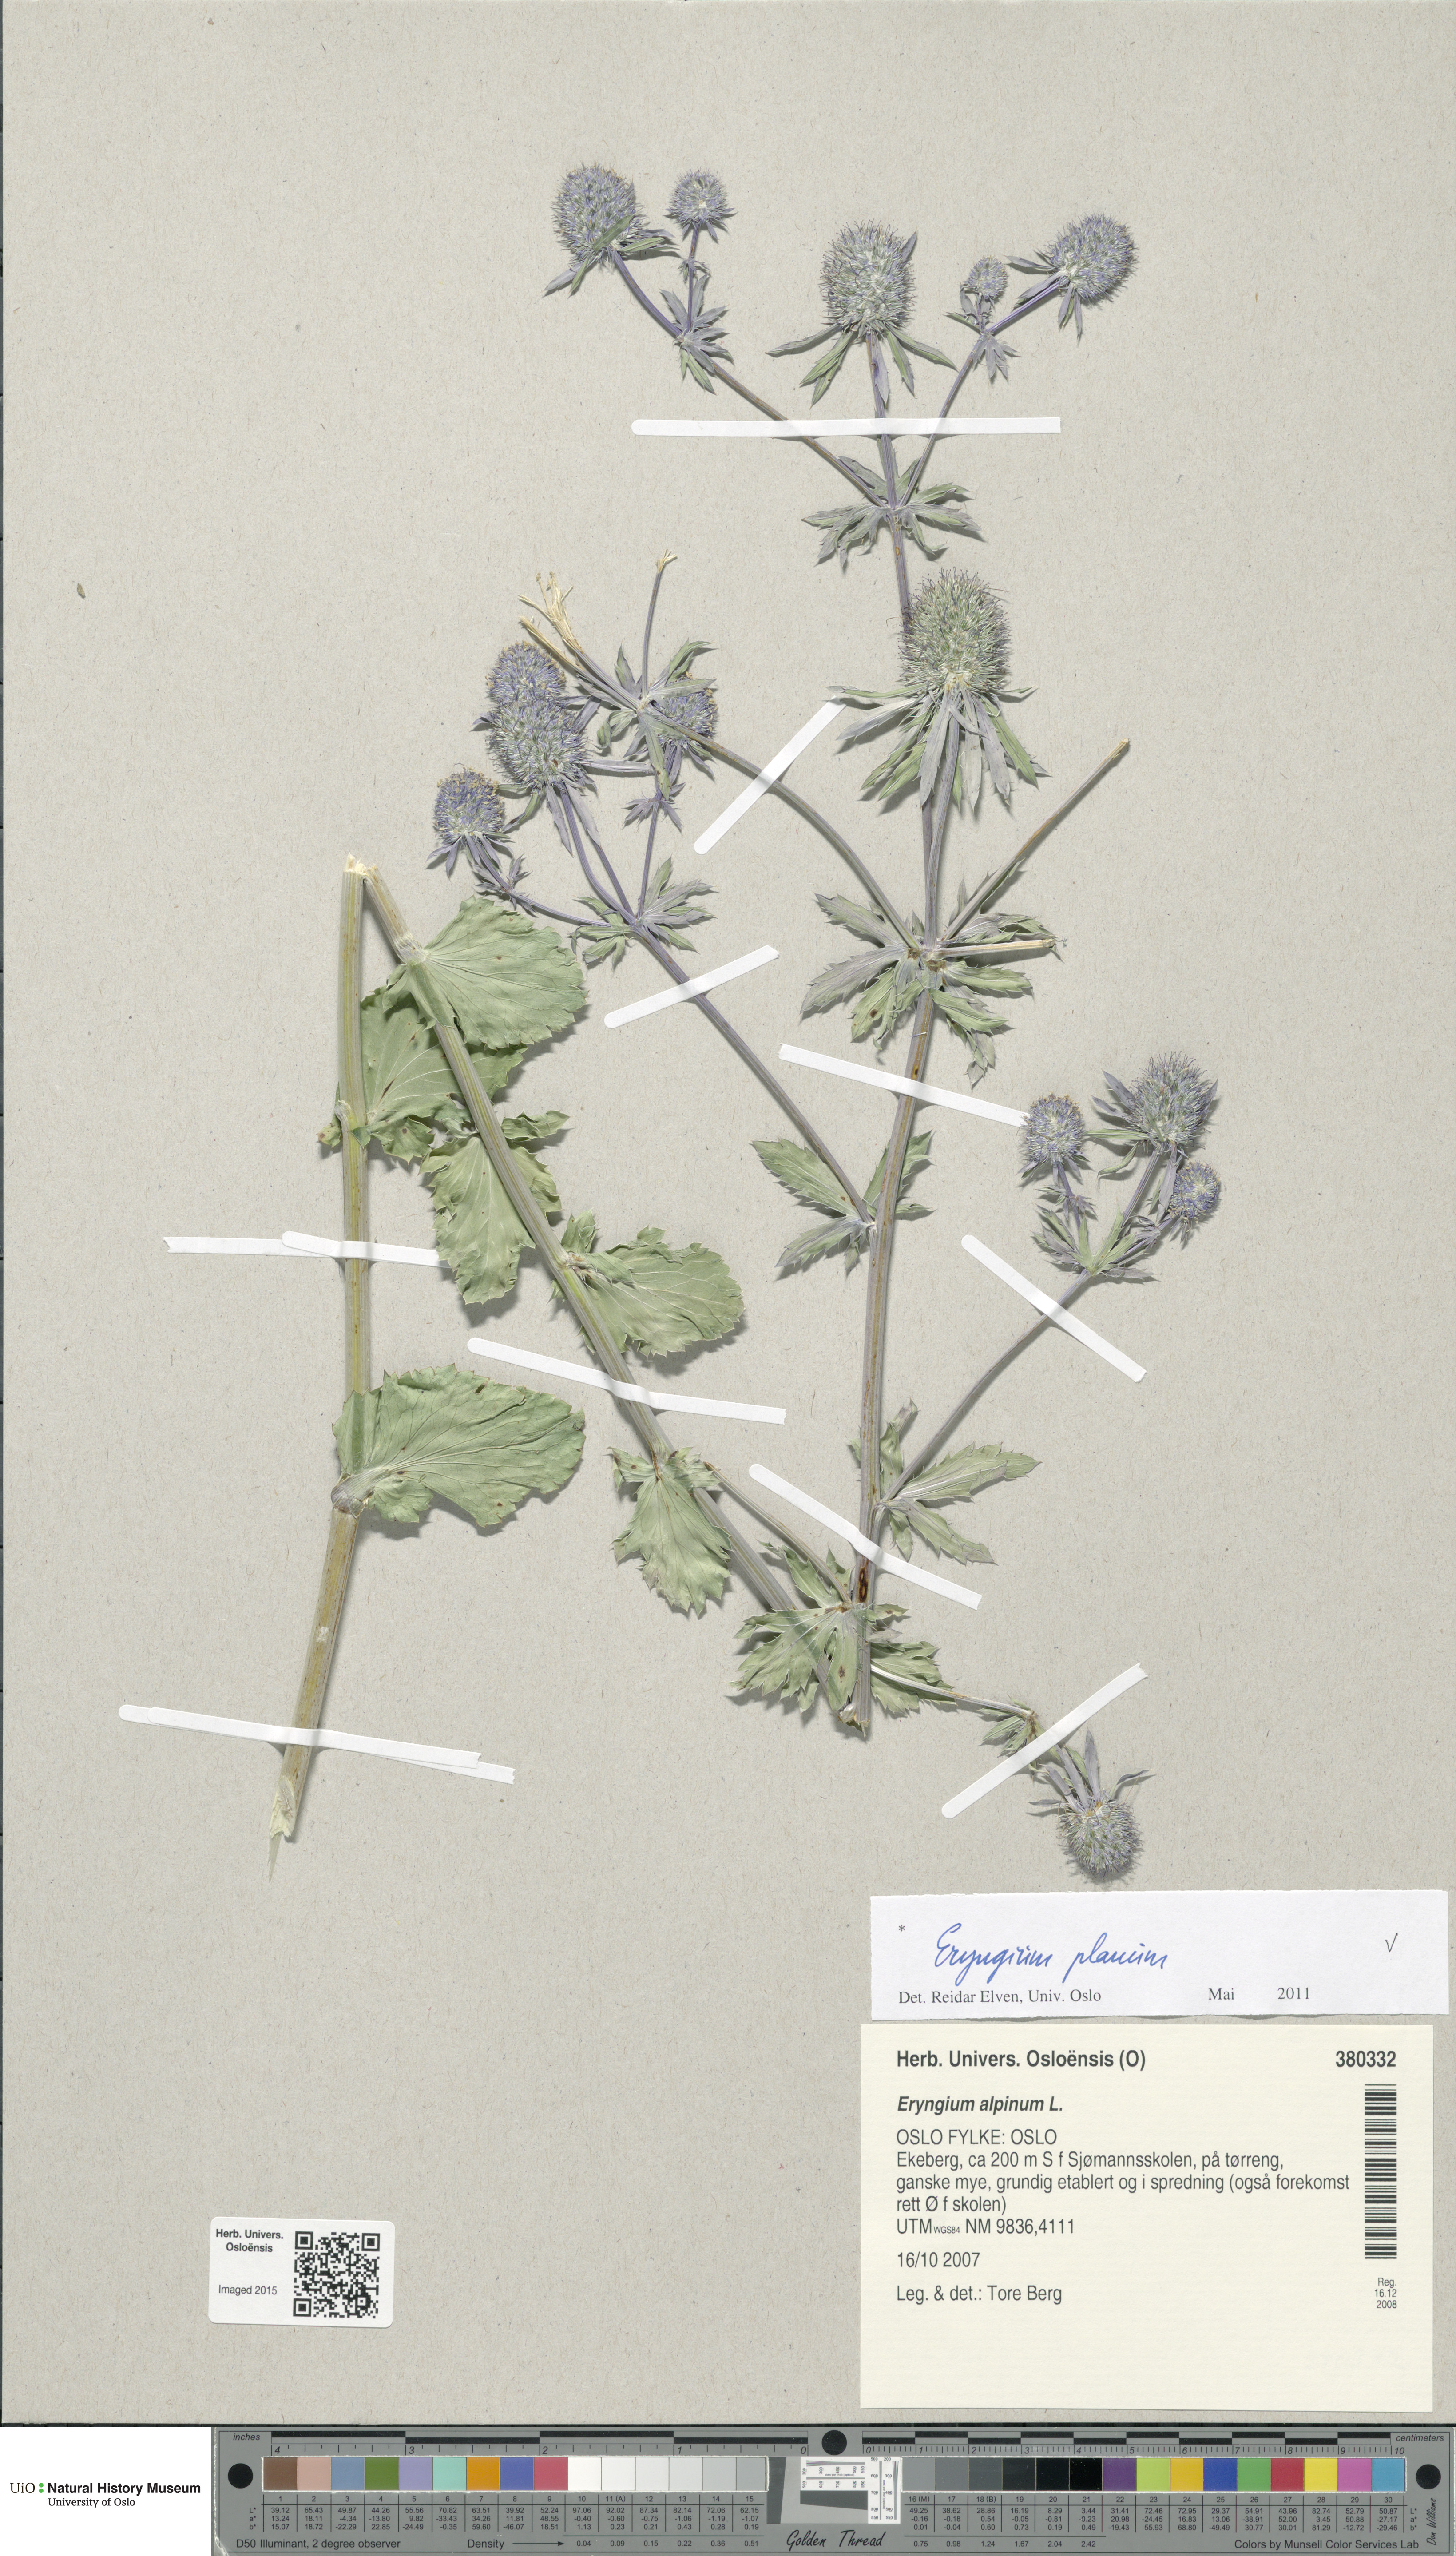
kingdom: Plantae
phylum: Tracheophyta
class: Magnoliopsida
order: Apiales
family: Apiaceae
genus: Eryngium
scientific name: Eryngium planum
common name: Blue eryngo
